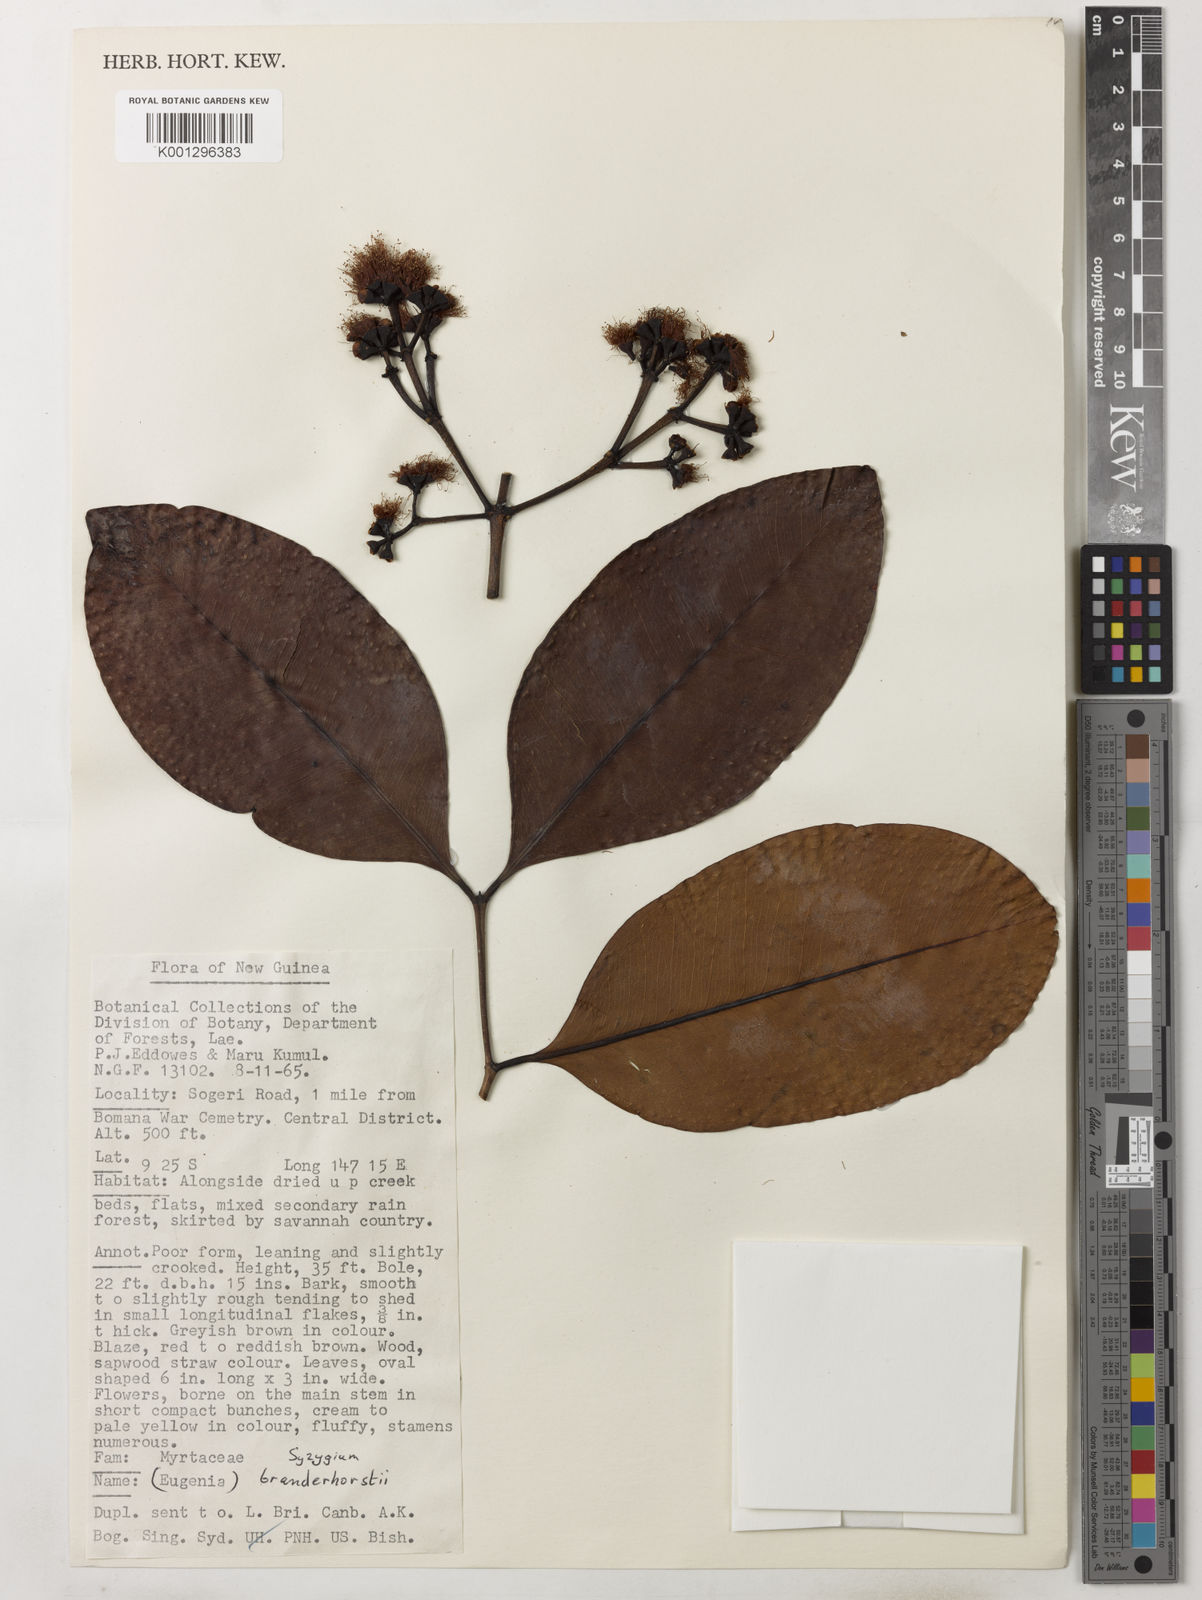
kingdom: Plantae
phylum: Tracheophyta
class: Magnoliopsida
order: Myrtales
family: Myrtaceae
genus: Syzygium
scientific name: Syzygium branderhorstii
